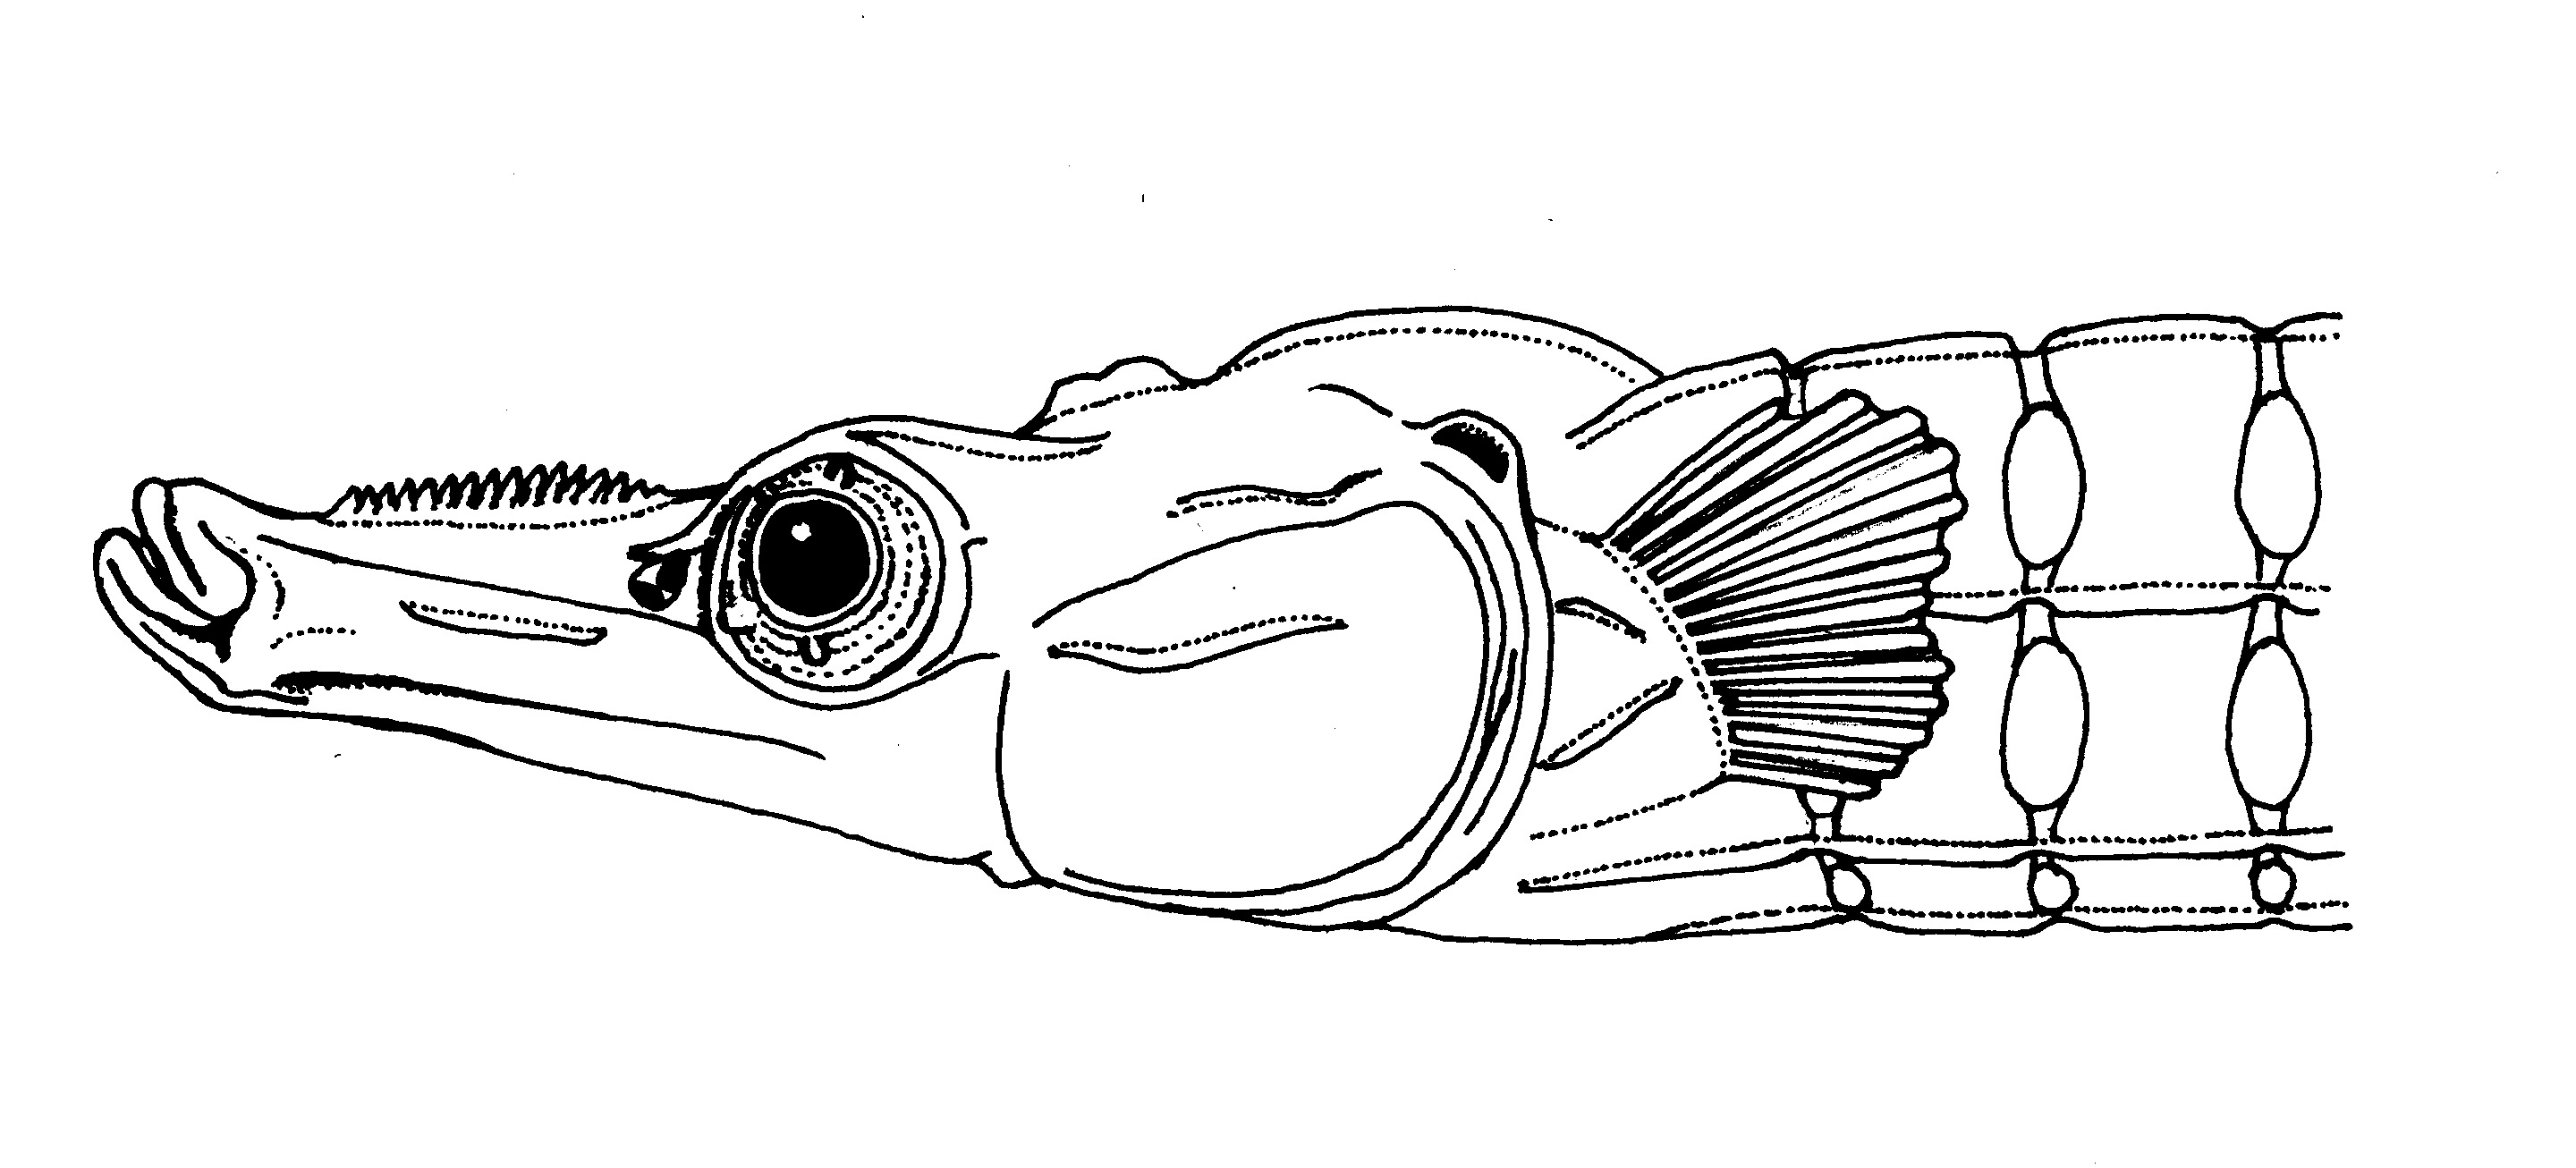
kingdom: Animalia
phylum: Chordata
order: Syngnathiformes
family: Syngnathidae
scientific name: Syngnathidae
